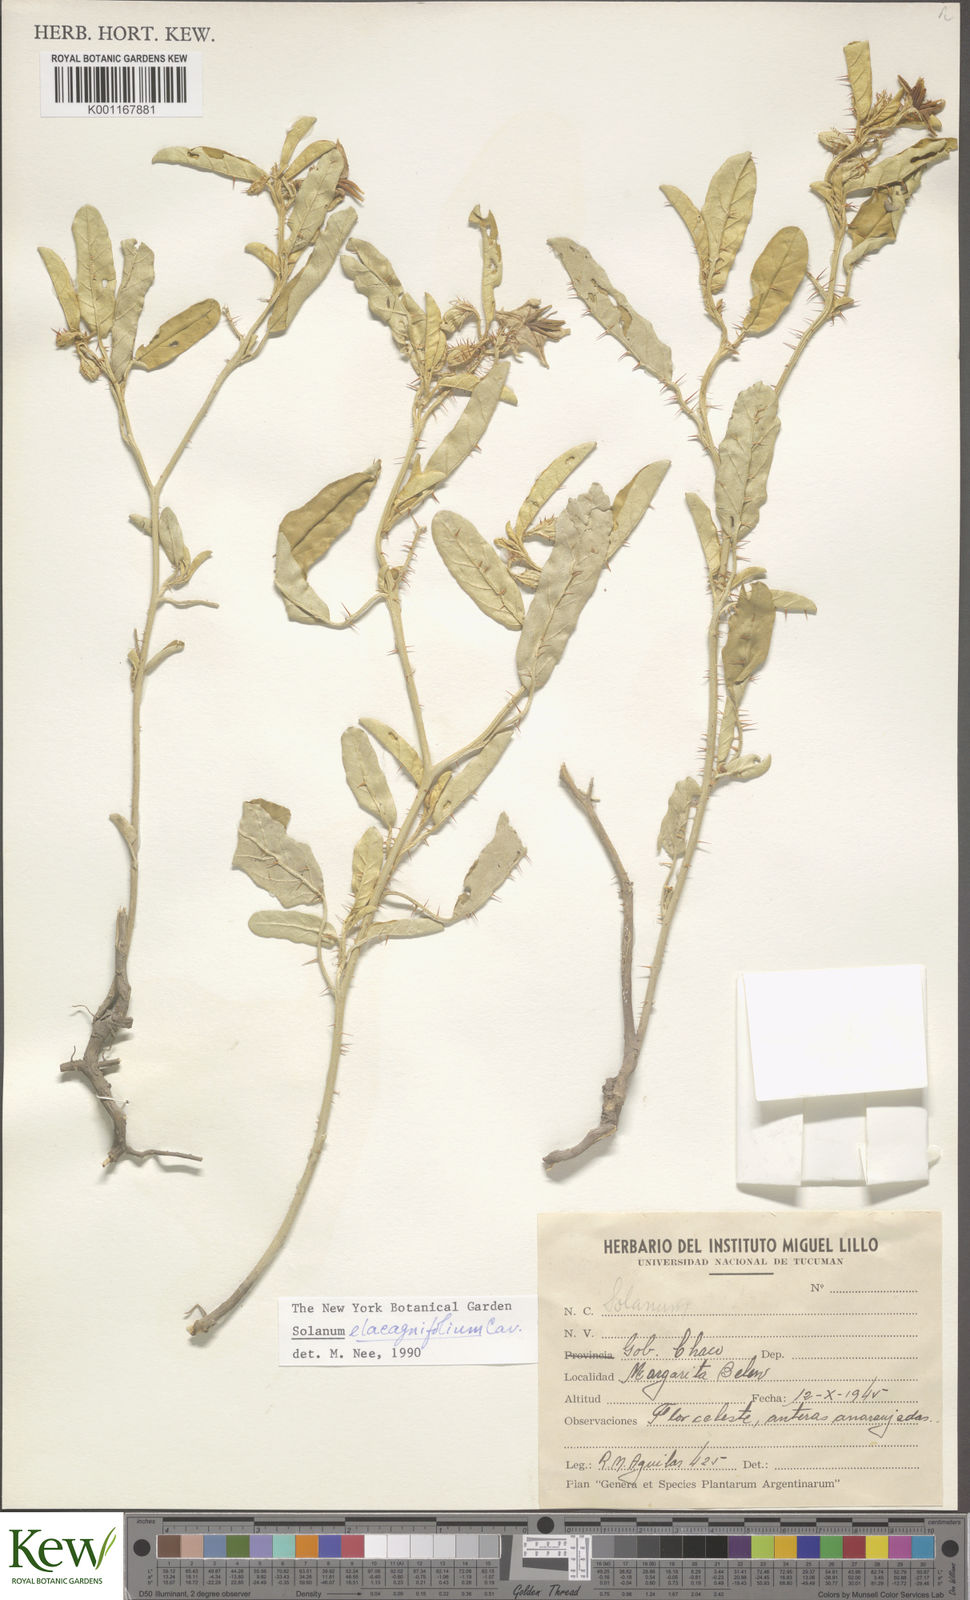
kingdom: Plantae
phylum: Tracheophyta
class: Magnoliopsida
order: Solanales
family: Solanaceae
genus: Solanum
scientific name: Solanum elaeagnifolium
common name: Silverleaf nightshade
